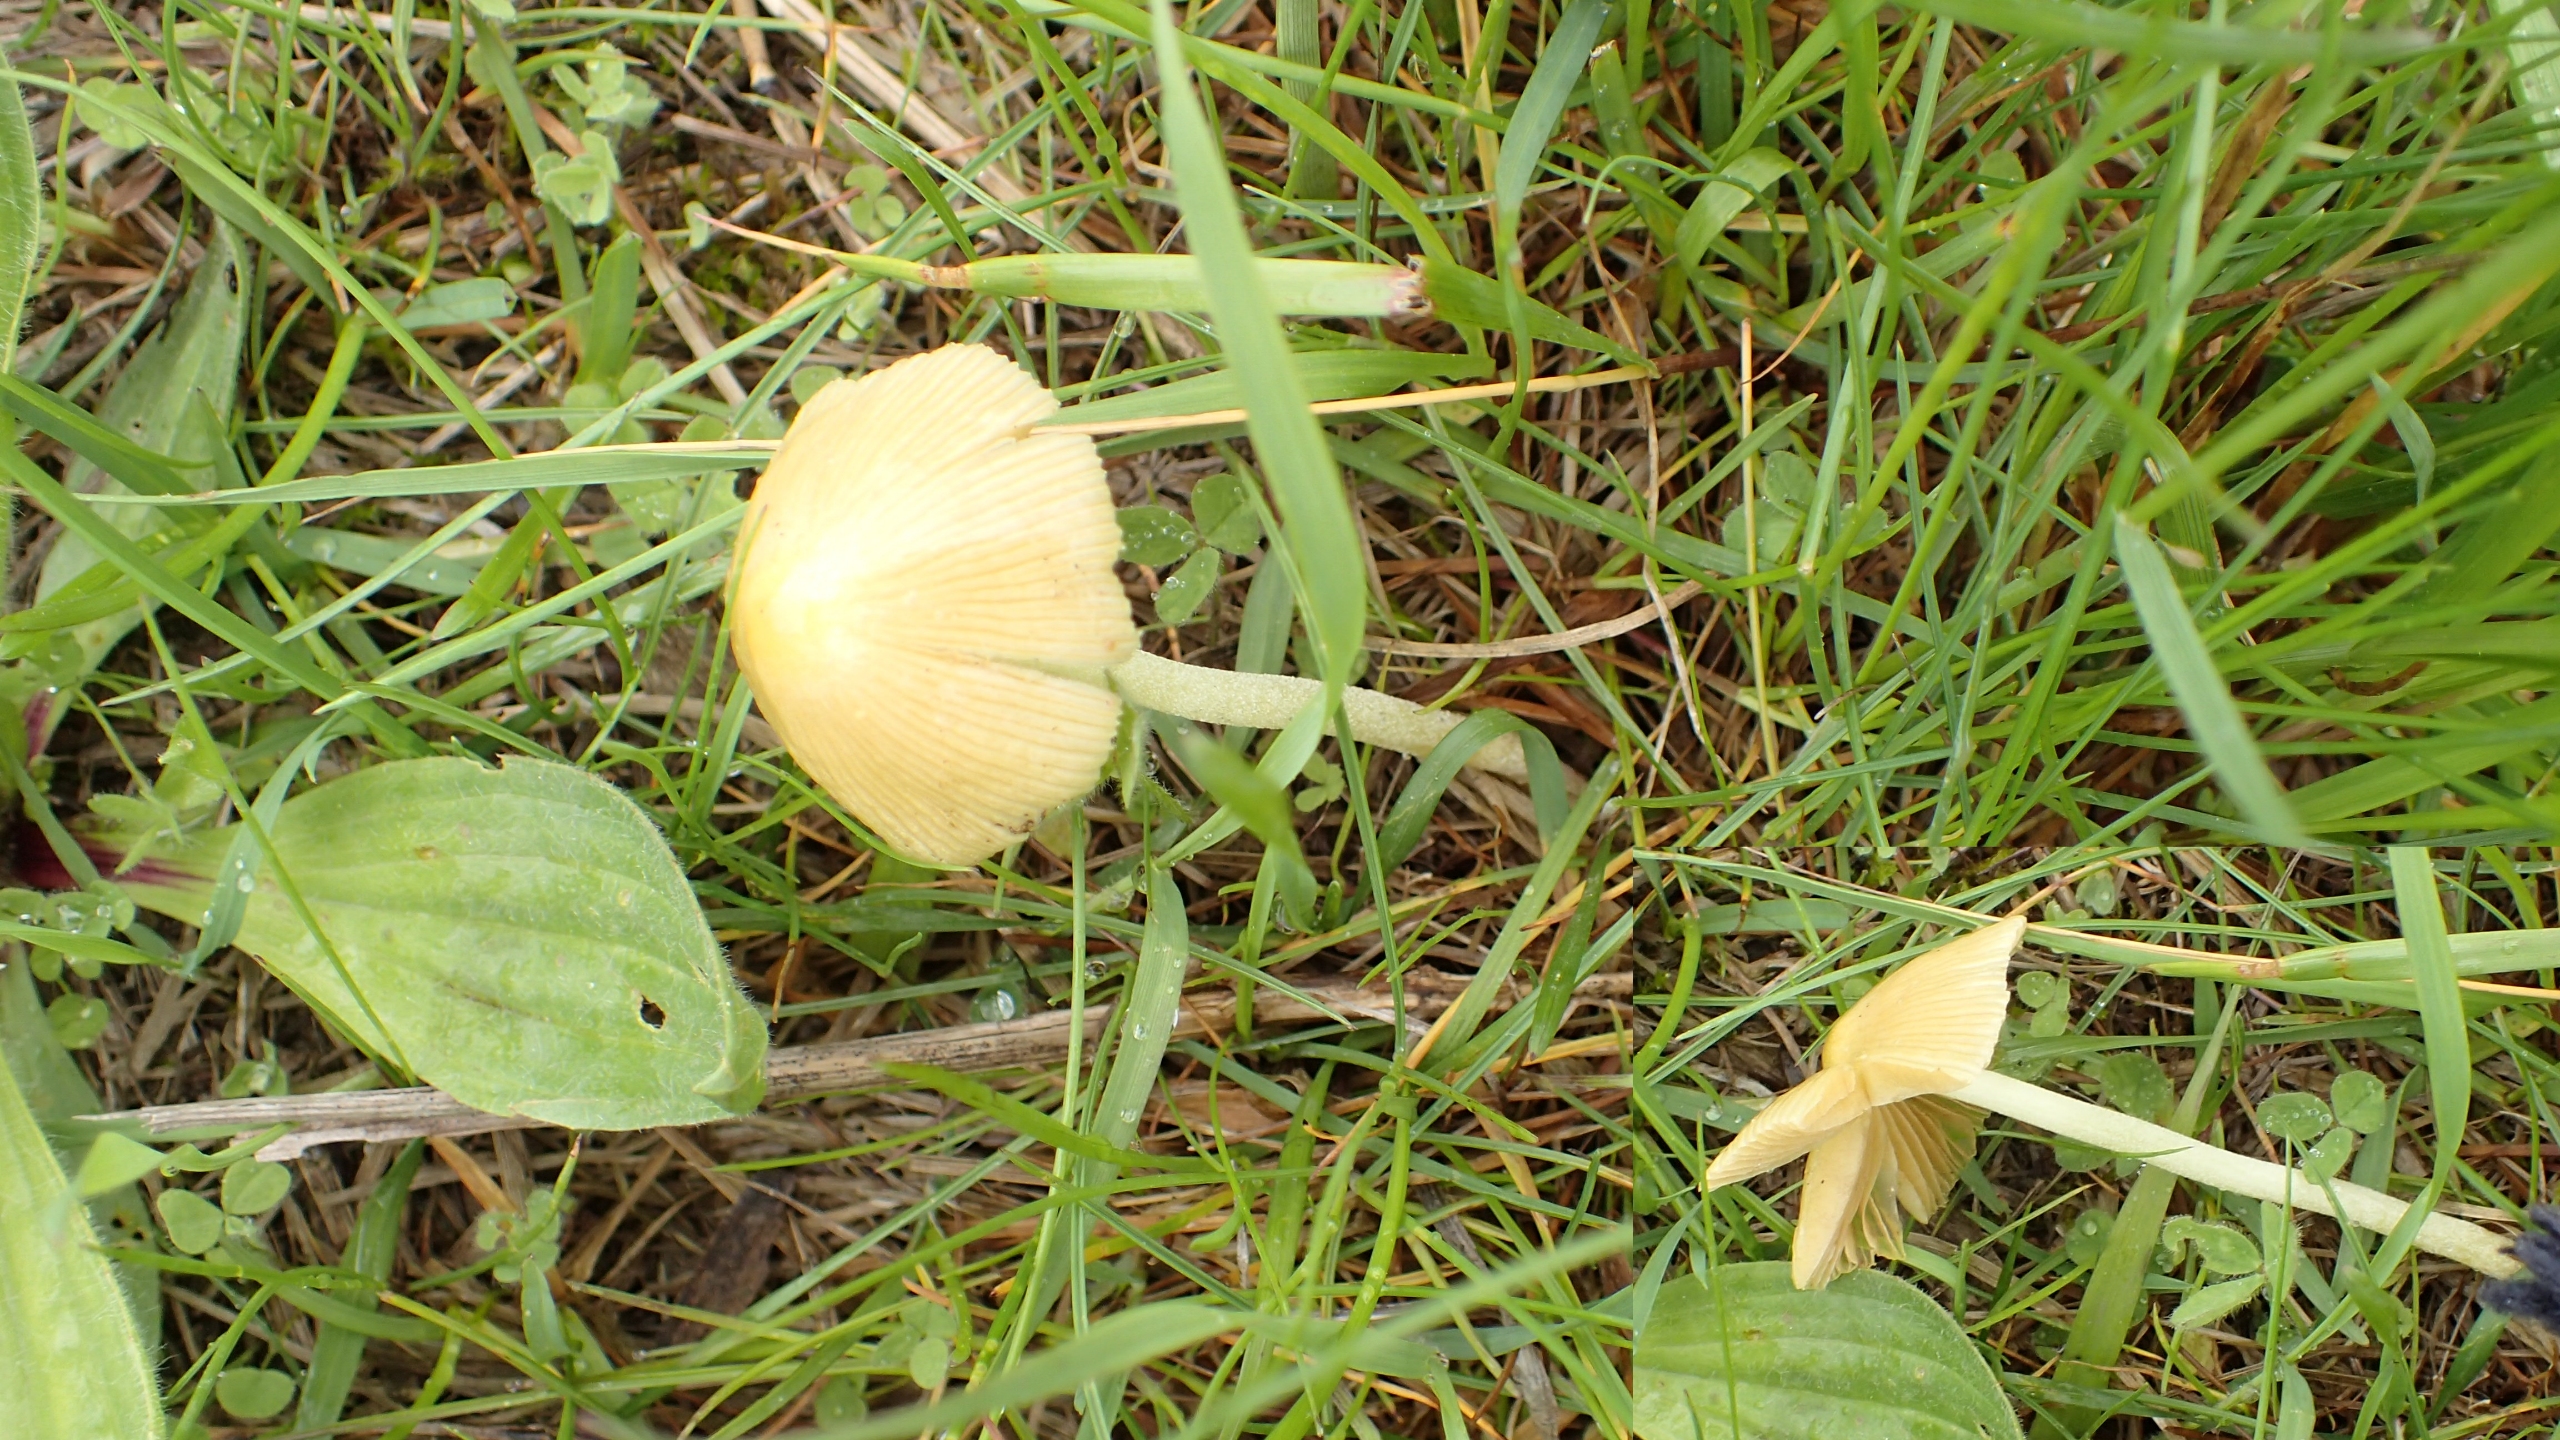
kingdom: Fungi
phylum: Basidiomycota
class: Agaricomycetes
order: Agaricales
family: Bolbitiaceae
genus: Bolbitius
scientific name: Bolbitius titubans
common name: Almindelig gulhat
